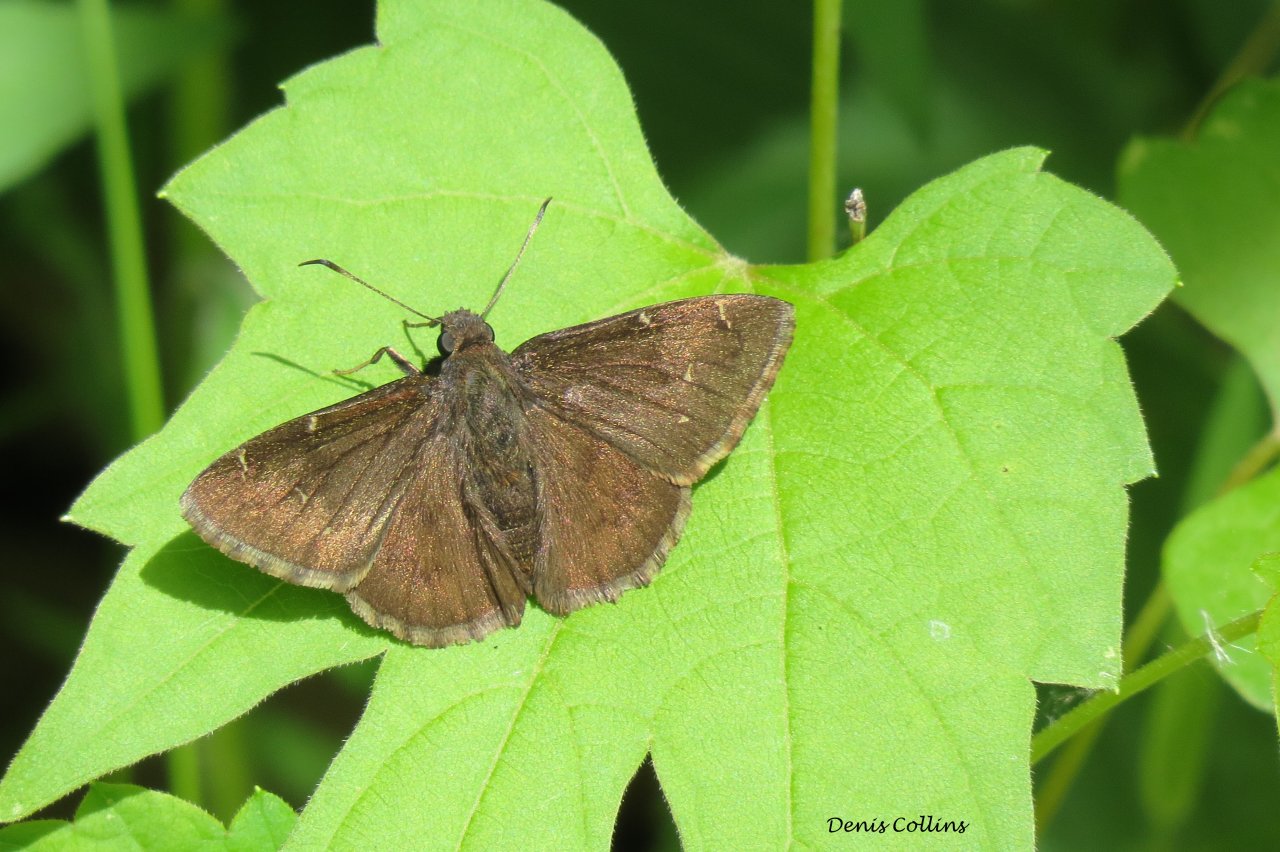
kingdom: Animalia
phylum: Arthropoda
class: Insecta
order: Lepidoptera
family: Hesperiidae
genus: Autochton
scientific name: Autochton
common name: Northern Cloudywing
